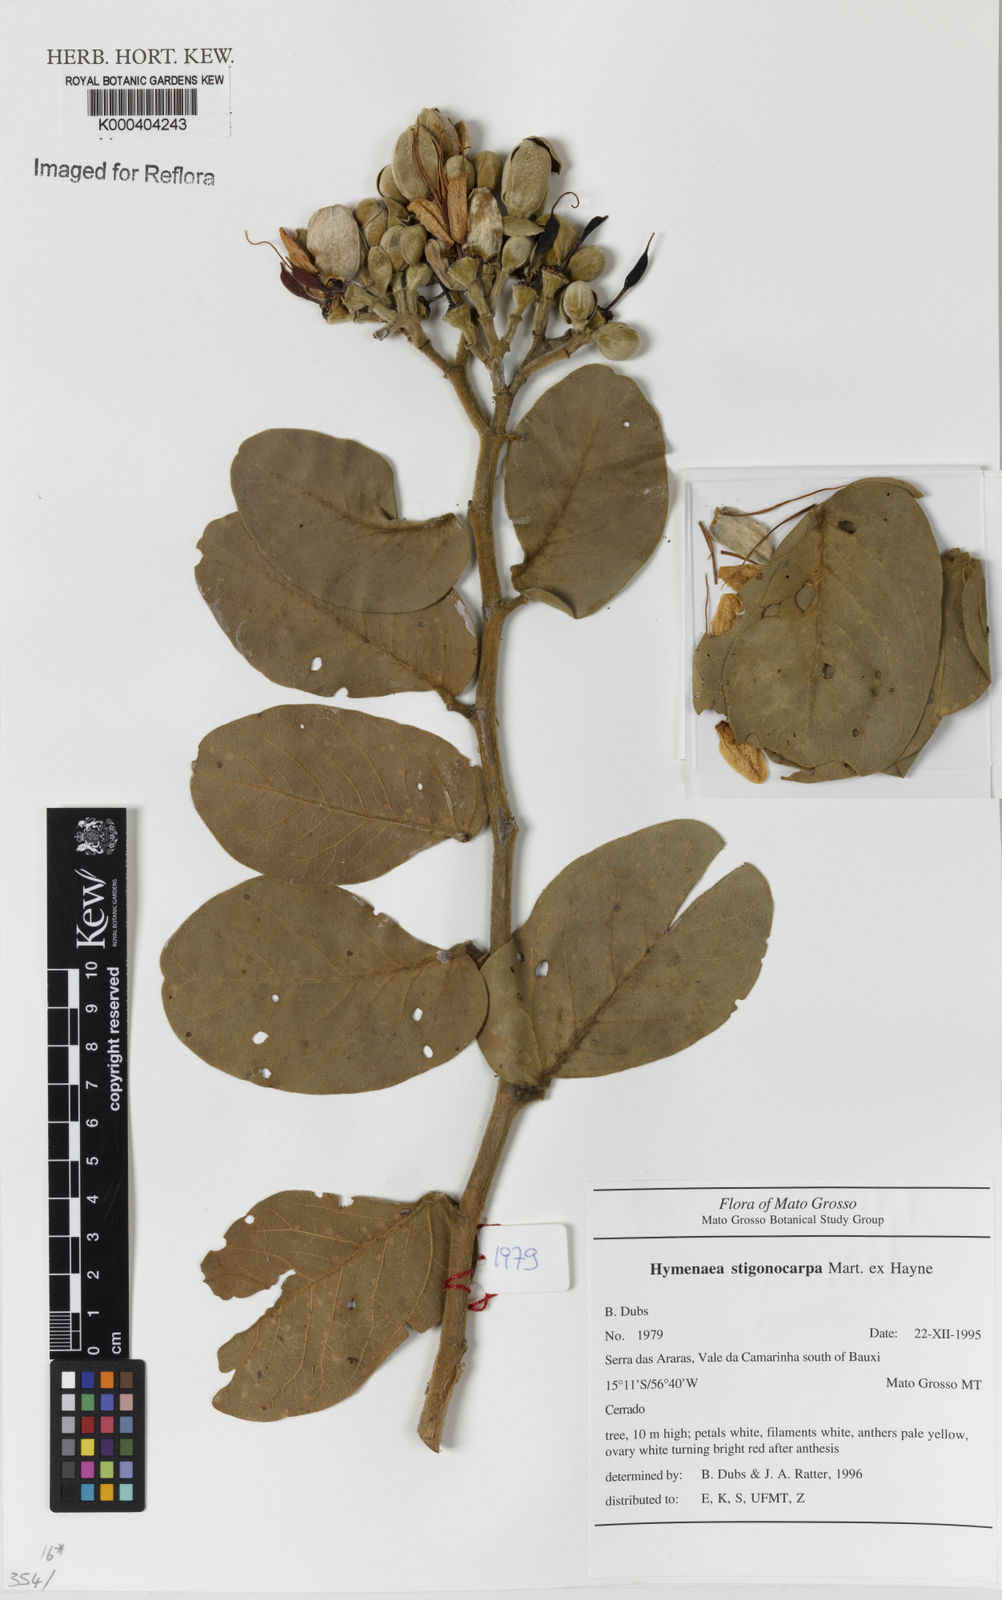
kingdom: Plantae
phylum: Tracheophyta
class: Magnoliopsida
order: Fabales
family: Fabaceae
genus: Hymenaea
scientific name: Hymenaea stigonocarpa
